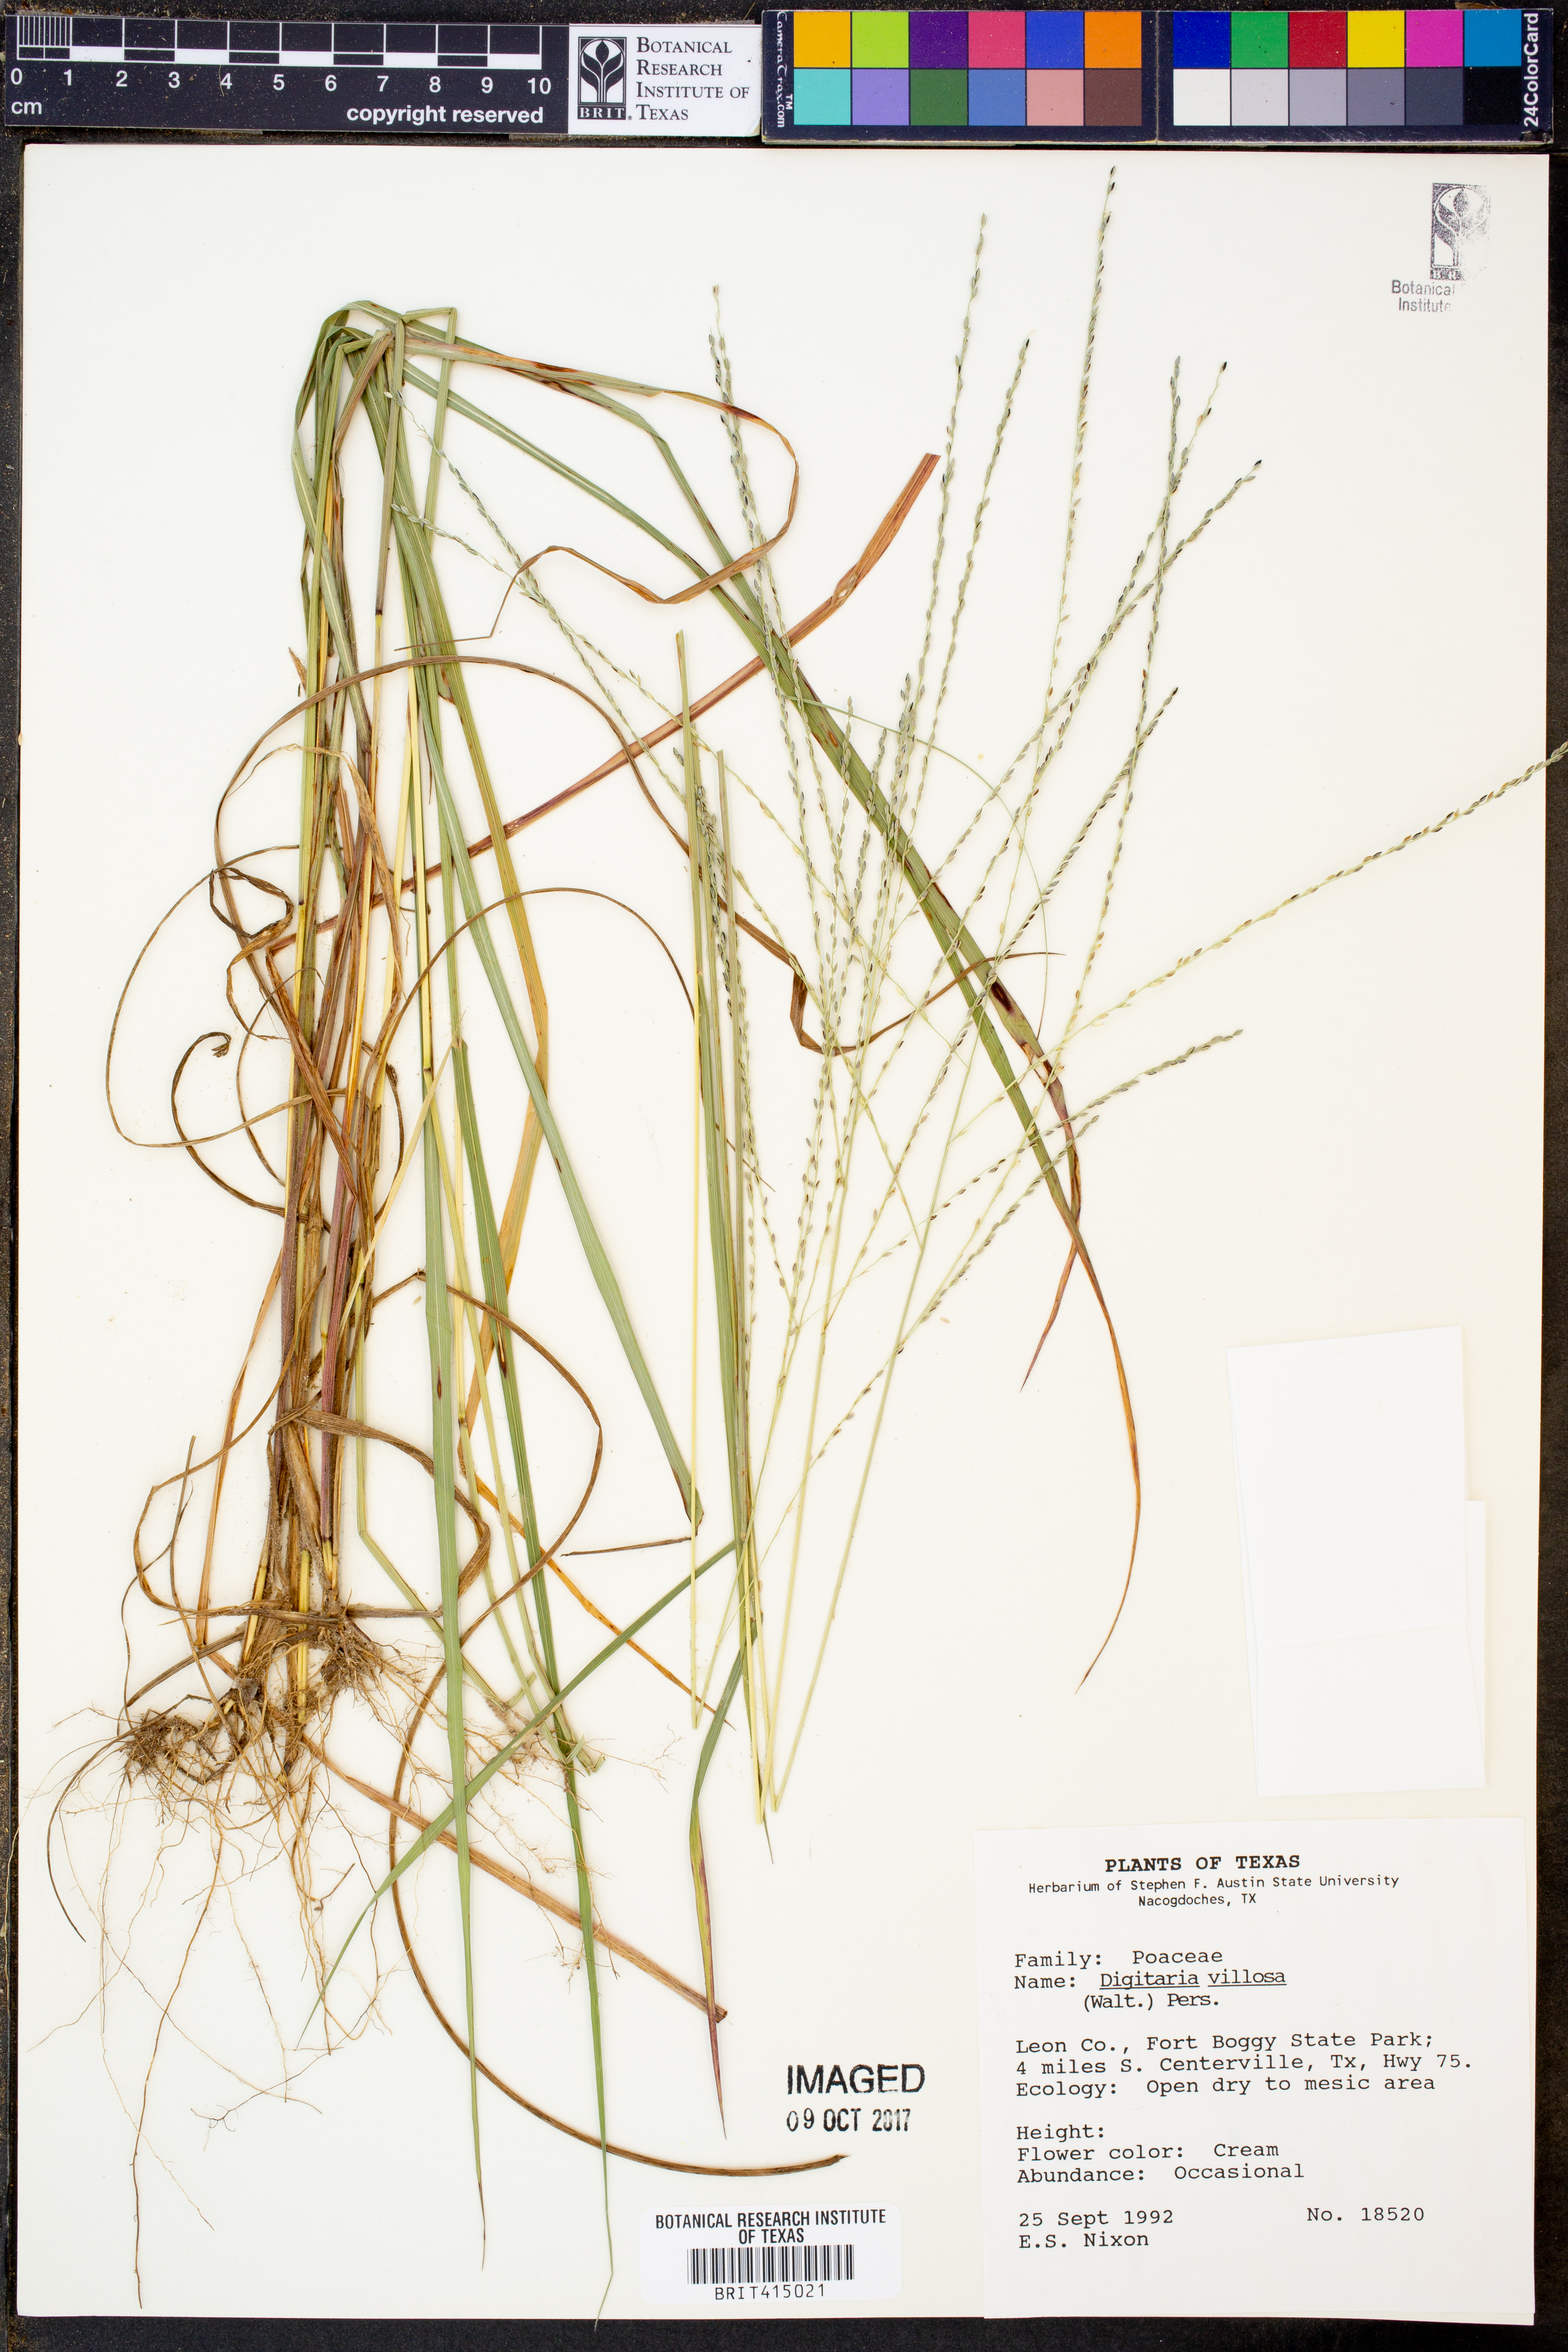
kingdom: Plantae
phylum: Tracheophyta
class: Liliopsida
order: Poales
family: Poaceae
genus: Digitaria
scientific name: Digitaria villosa
